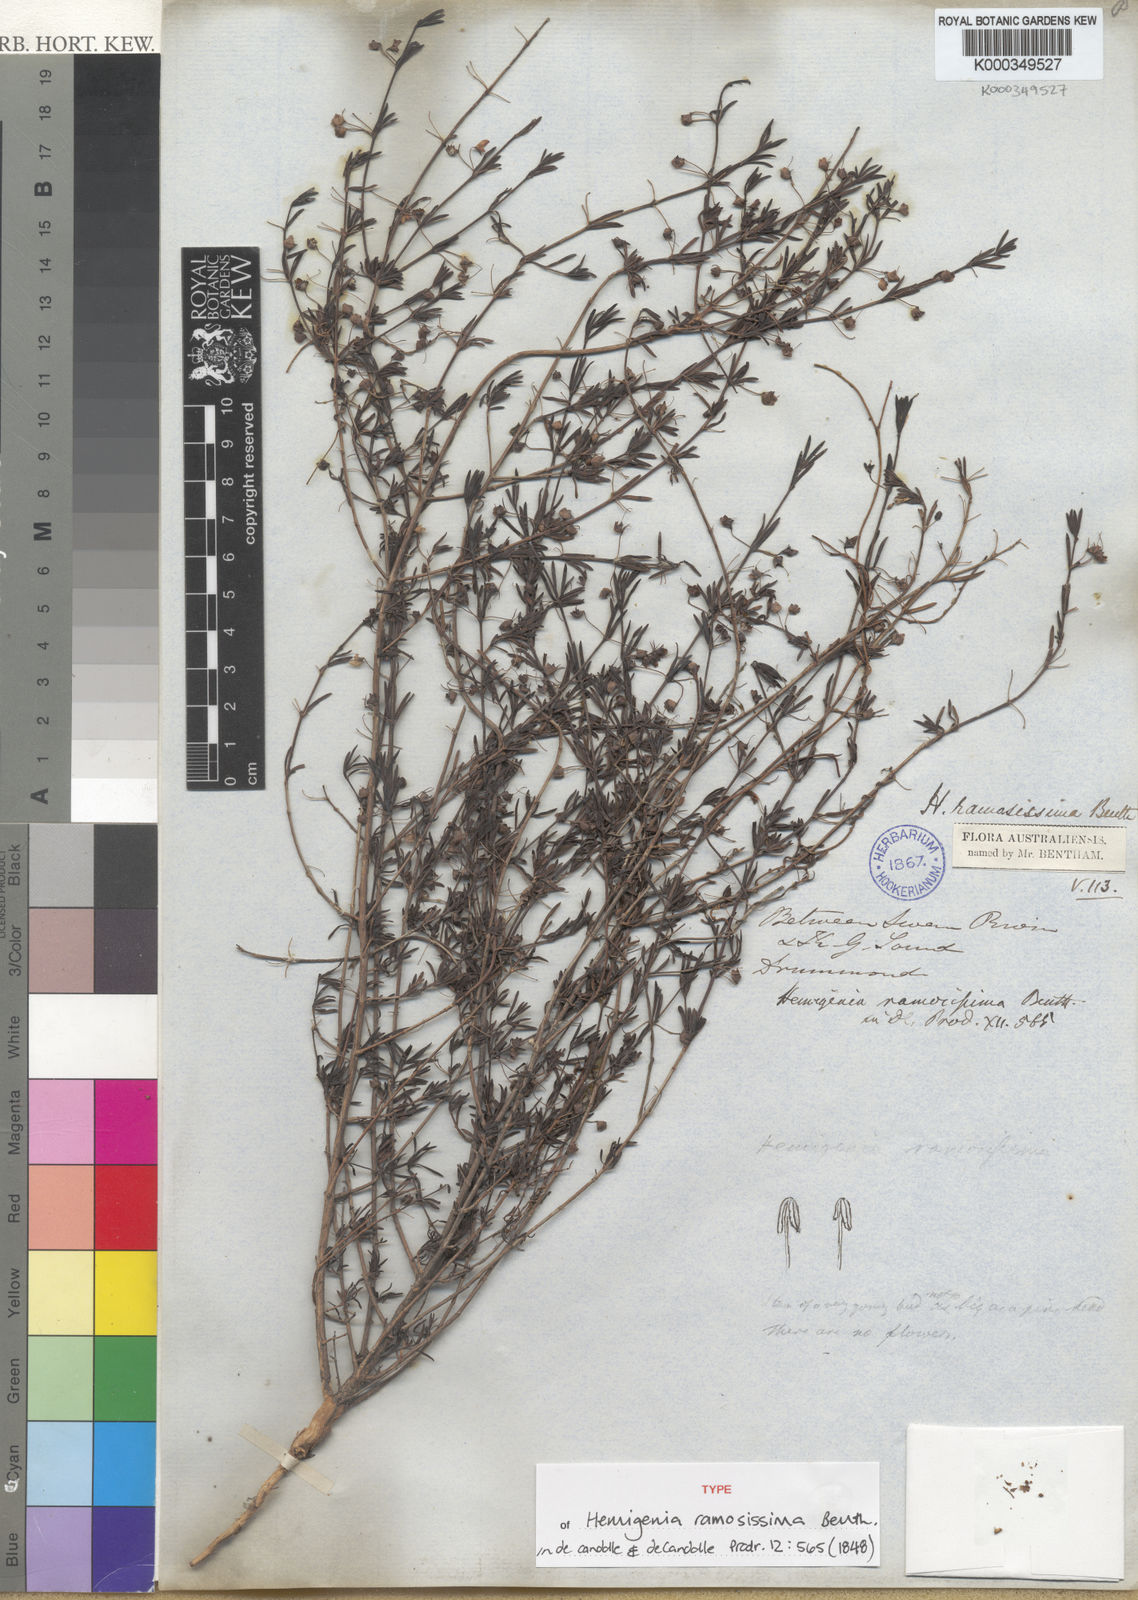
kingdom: Plantae
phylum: Tracheophyta
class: Magnoliopsida
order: Lamiales
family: Lamiaceae
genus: Hemigenia
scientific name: Hemigenia ramosissima
